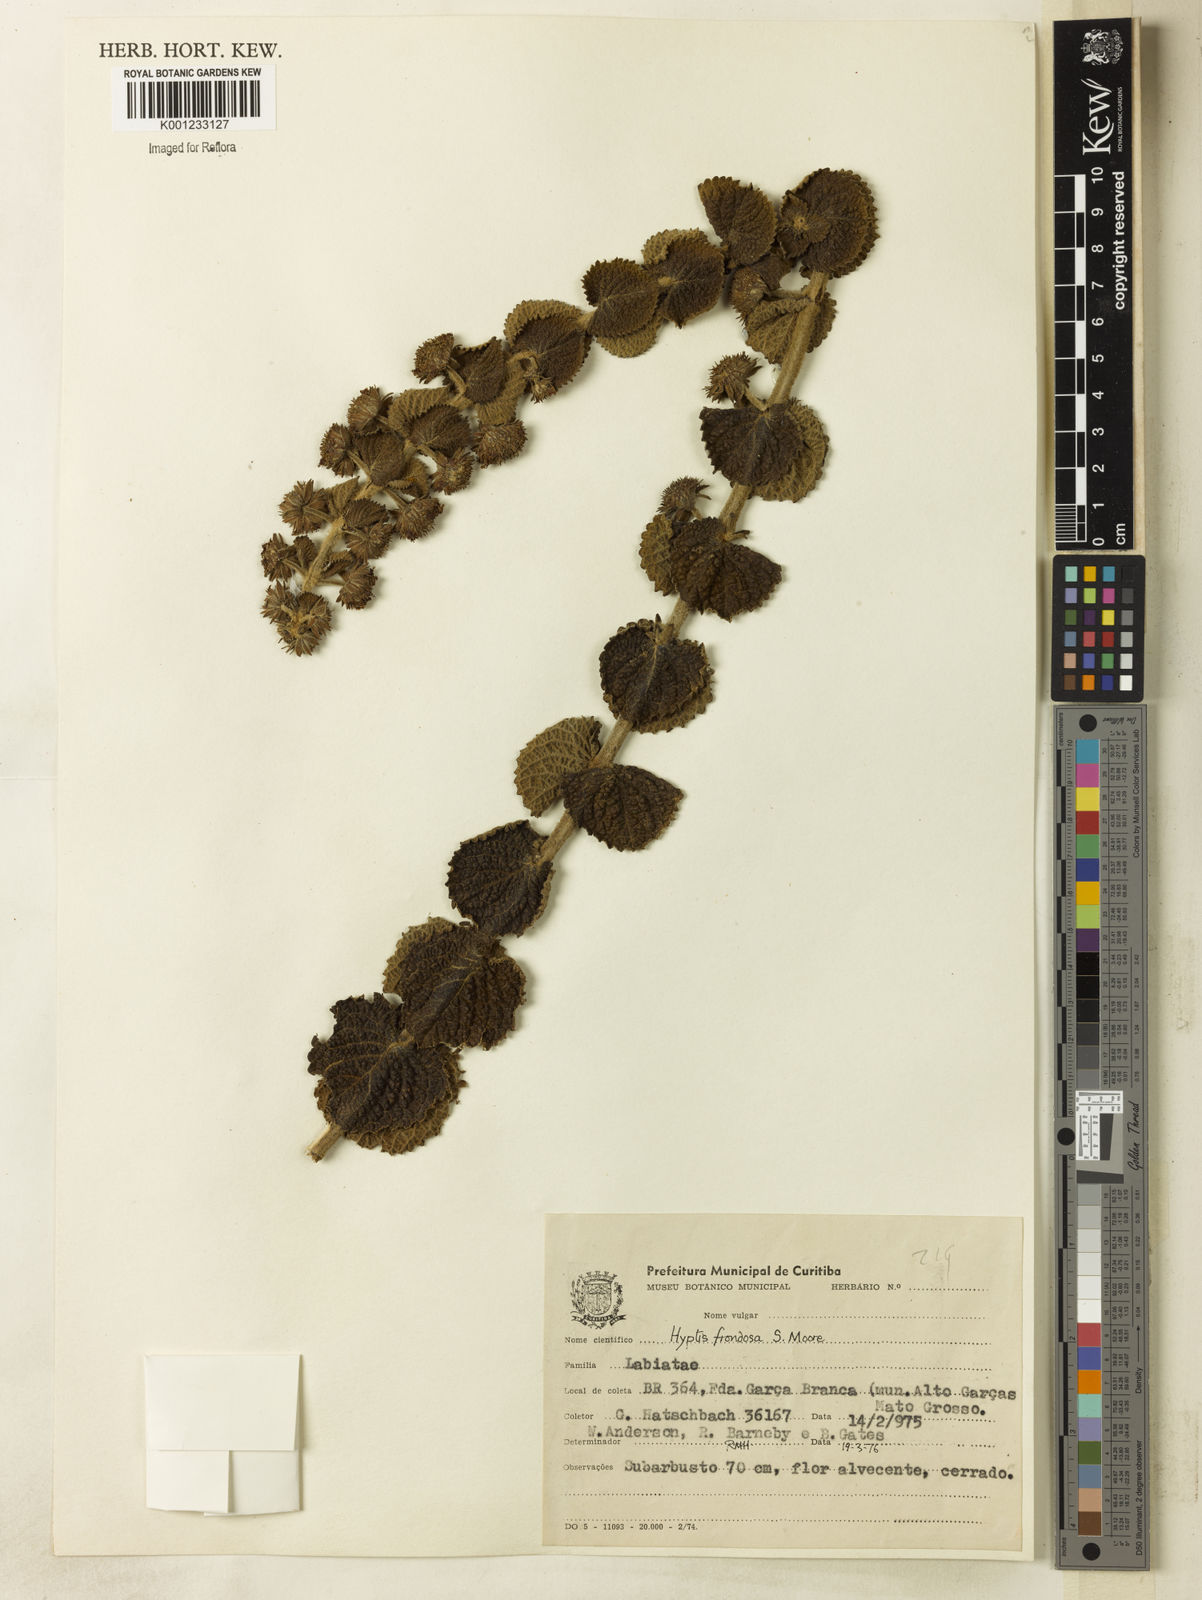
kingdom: Plantae
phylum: Tracheophyta
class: Magnoliopsida
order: Lamiales
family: Lamiaceae
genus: Hyptis
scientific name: Hyptis frondosa
